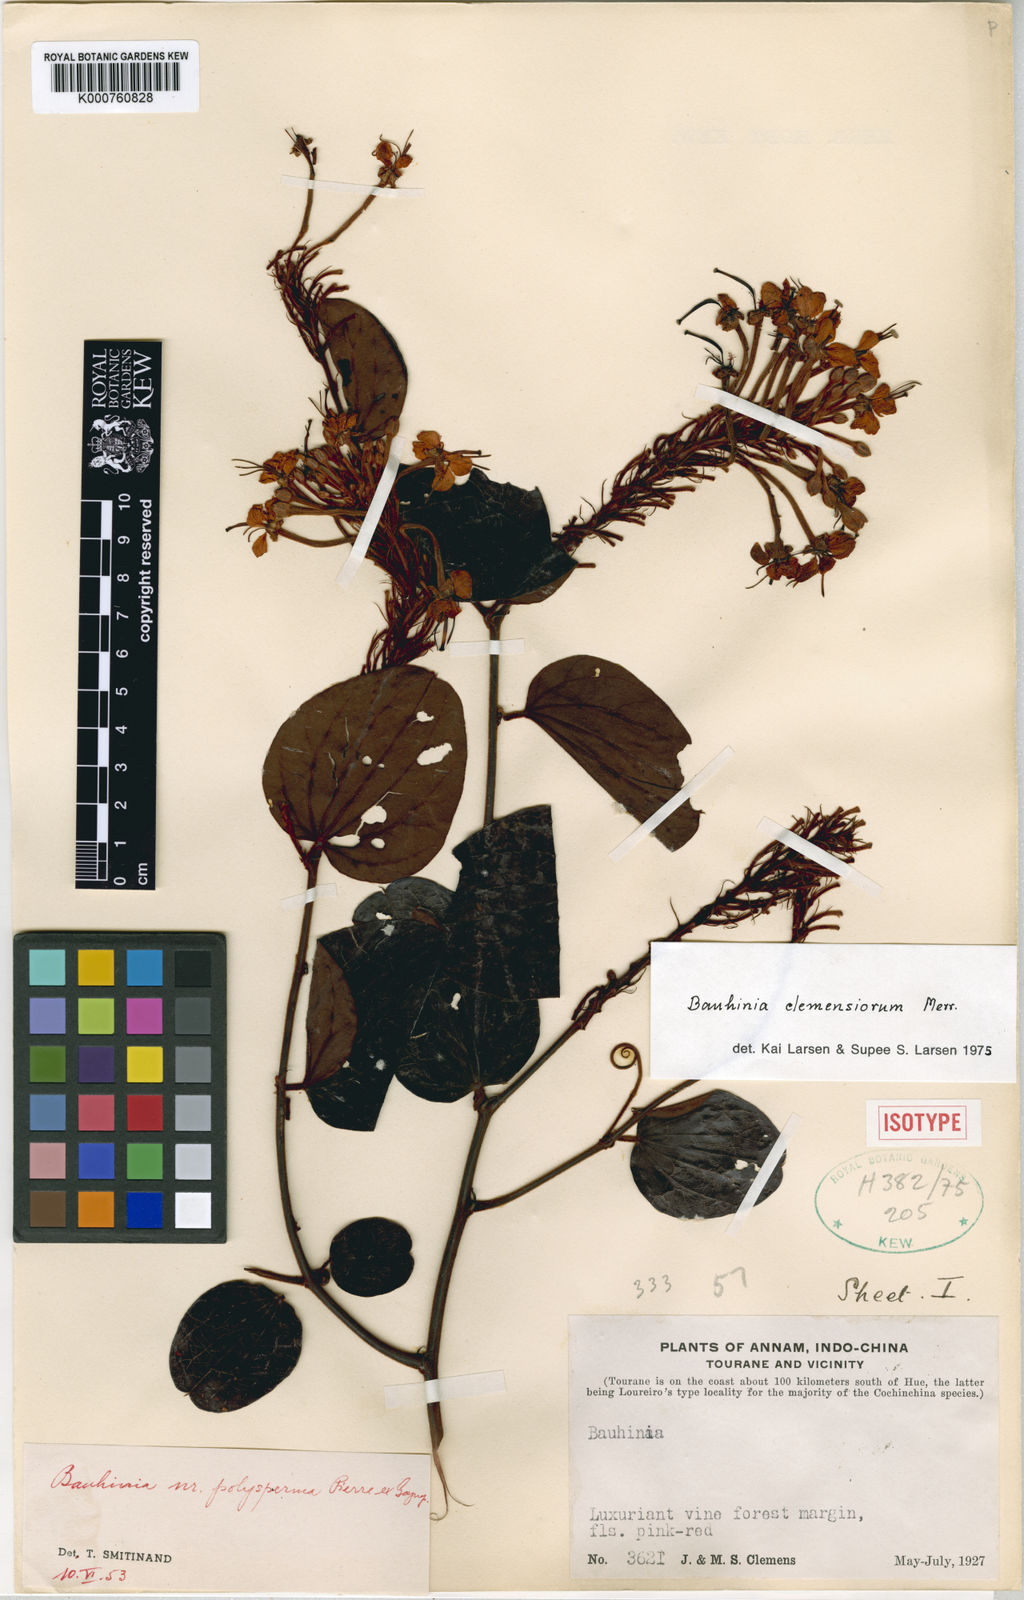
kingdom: Plantae
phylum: Tracheophyta
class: Magnoliopsida
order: Fabales
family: Fabaceae
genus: Cheniella
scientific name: Cheniella clemensiorum
